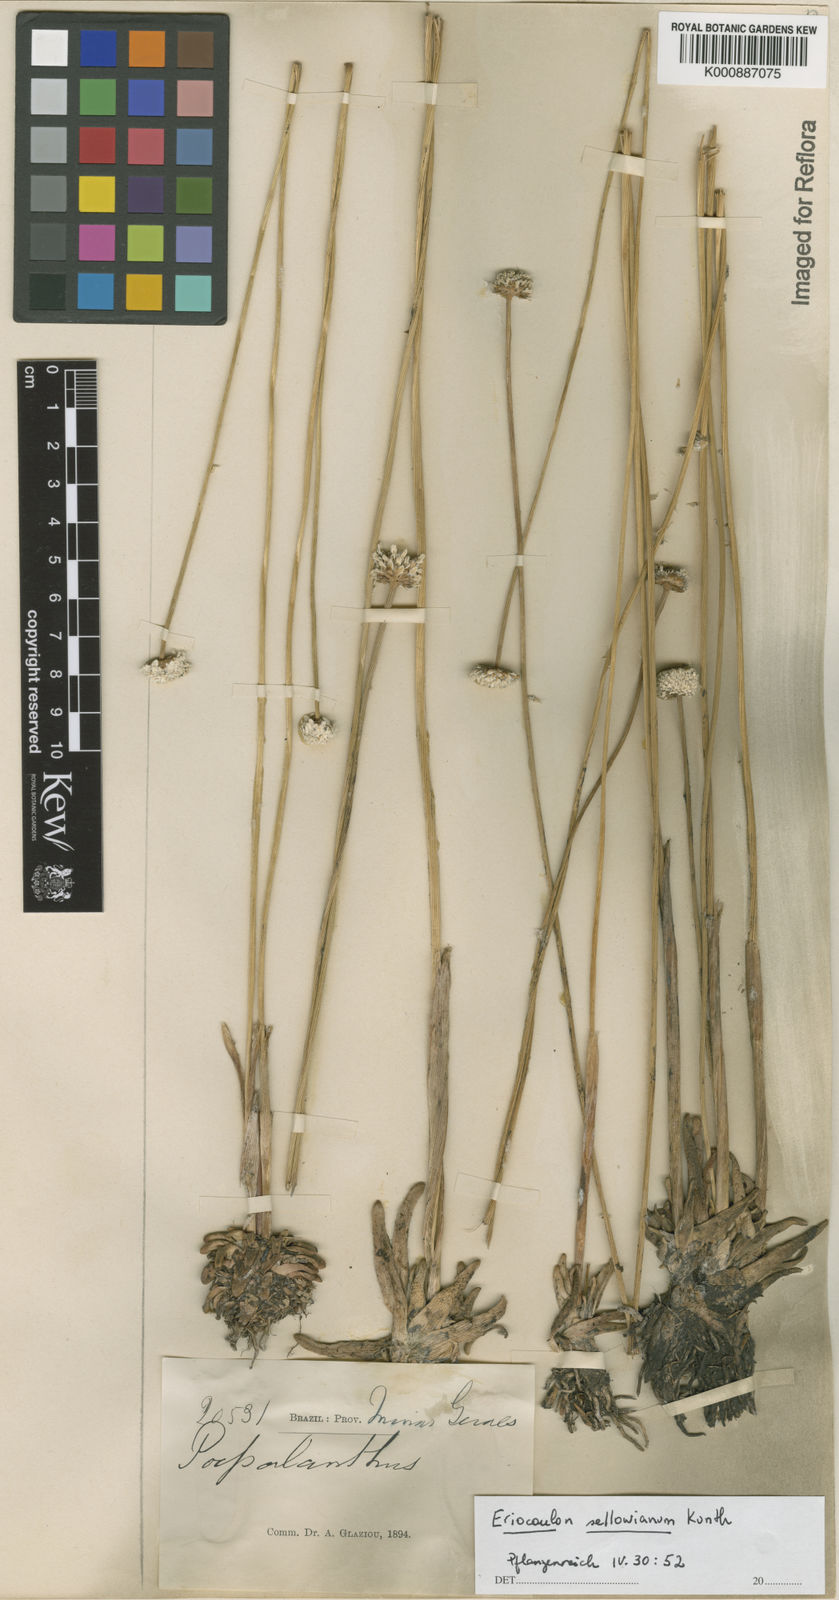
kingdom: Plantae
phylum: Tracheophyta
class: Liliopsida
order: Poales
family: Eriocaulaceae
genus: Eriocaulon
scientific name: Eriocaulon sellowianum
